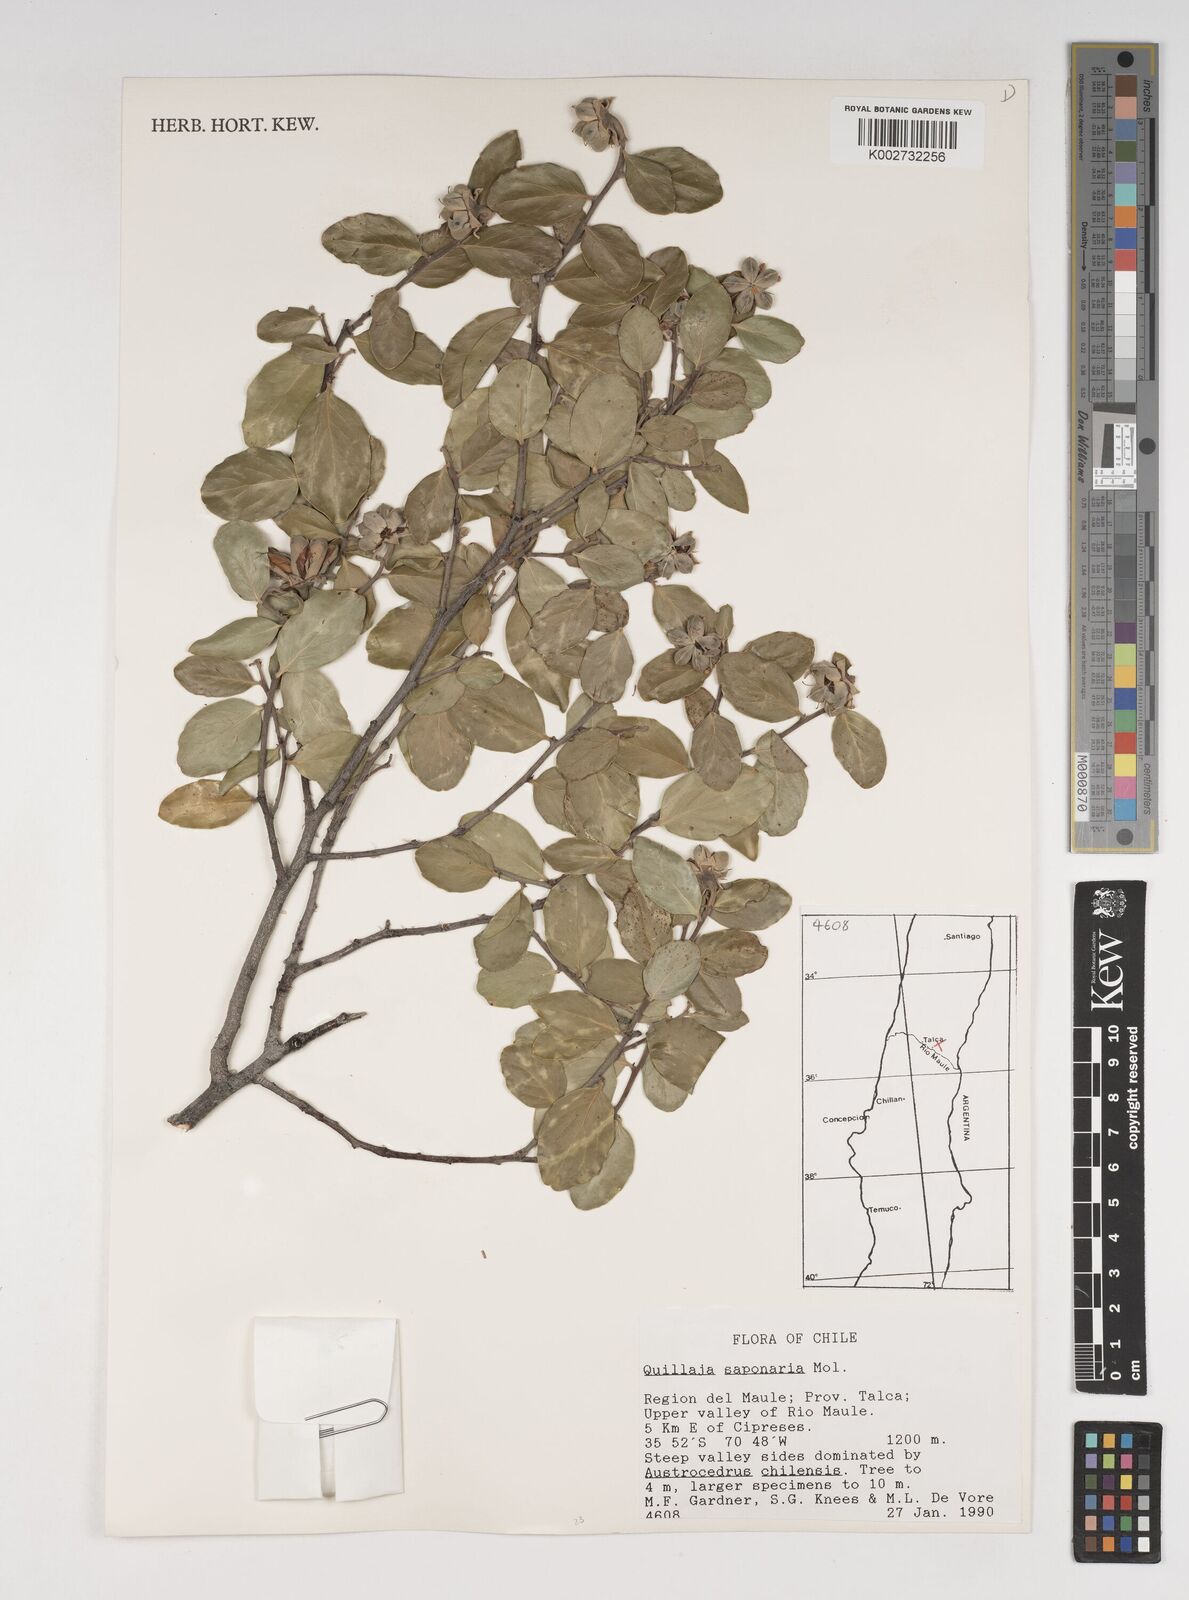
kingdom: Plantae
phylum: Tracheophyta
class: Magnoliopsida
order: Fabales
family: Quillajaceae
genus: Quillaja
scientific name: Quillaja saponaria
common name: Murillo's-bark
